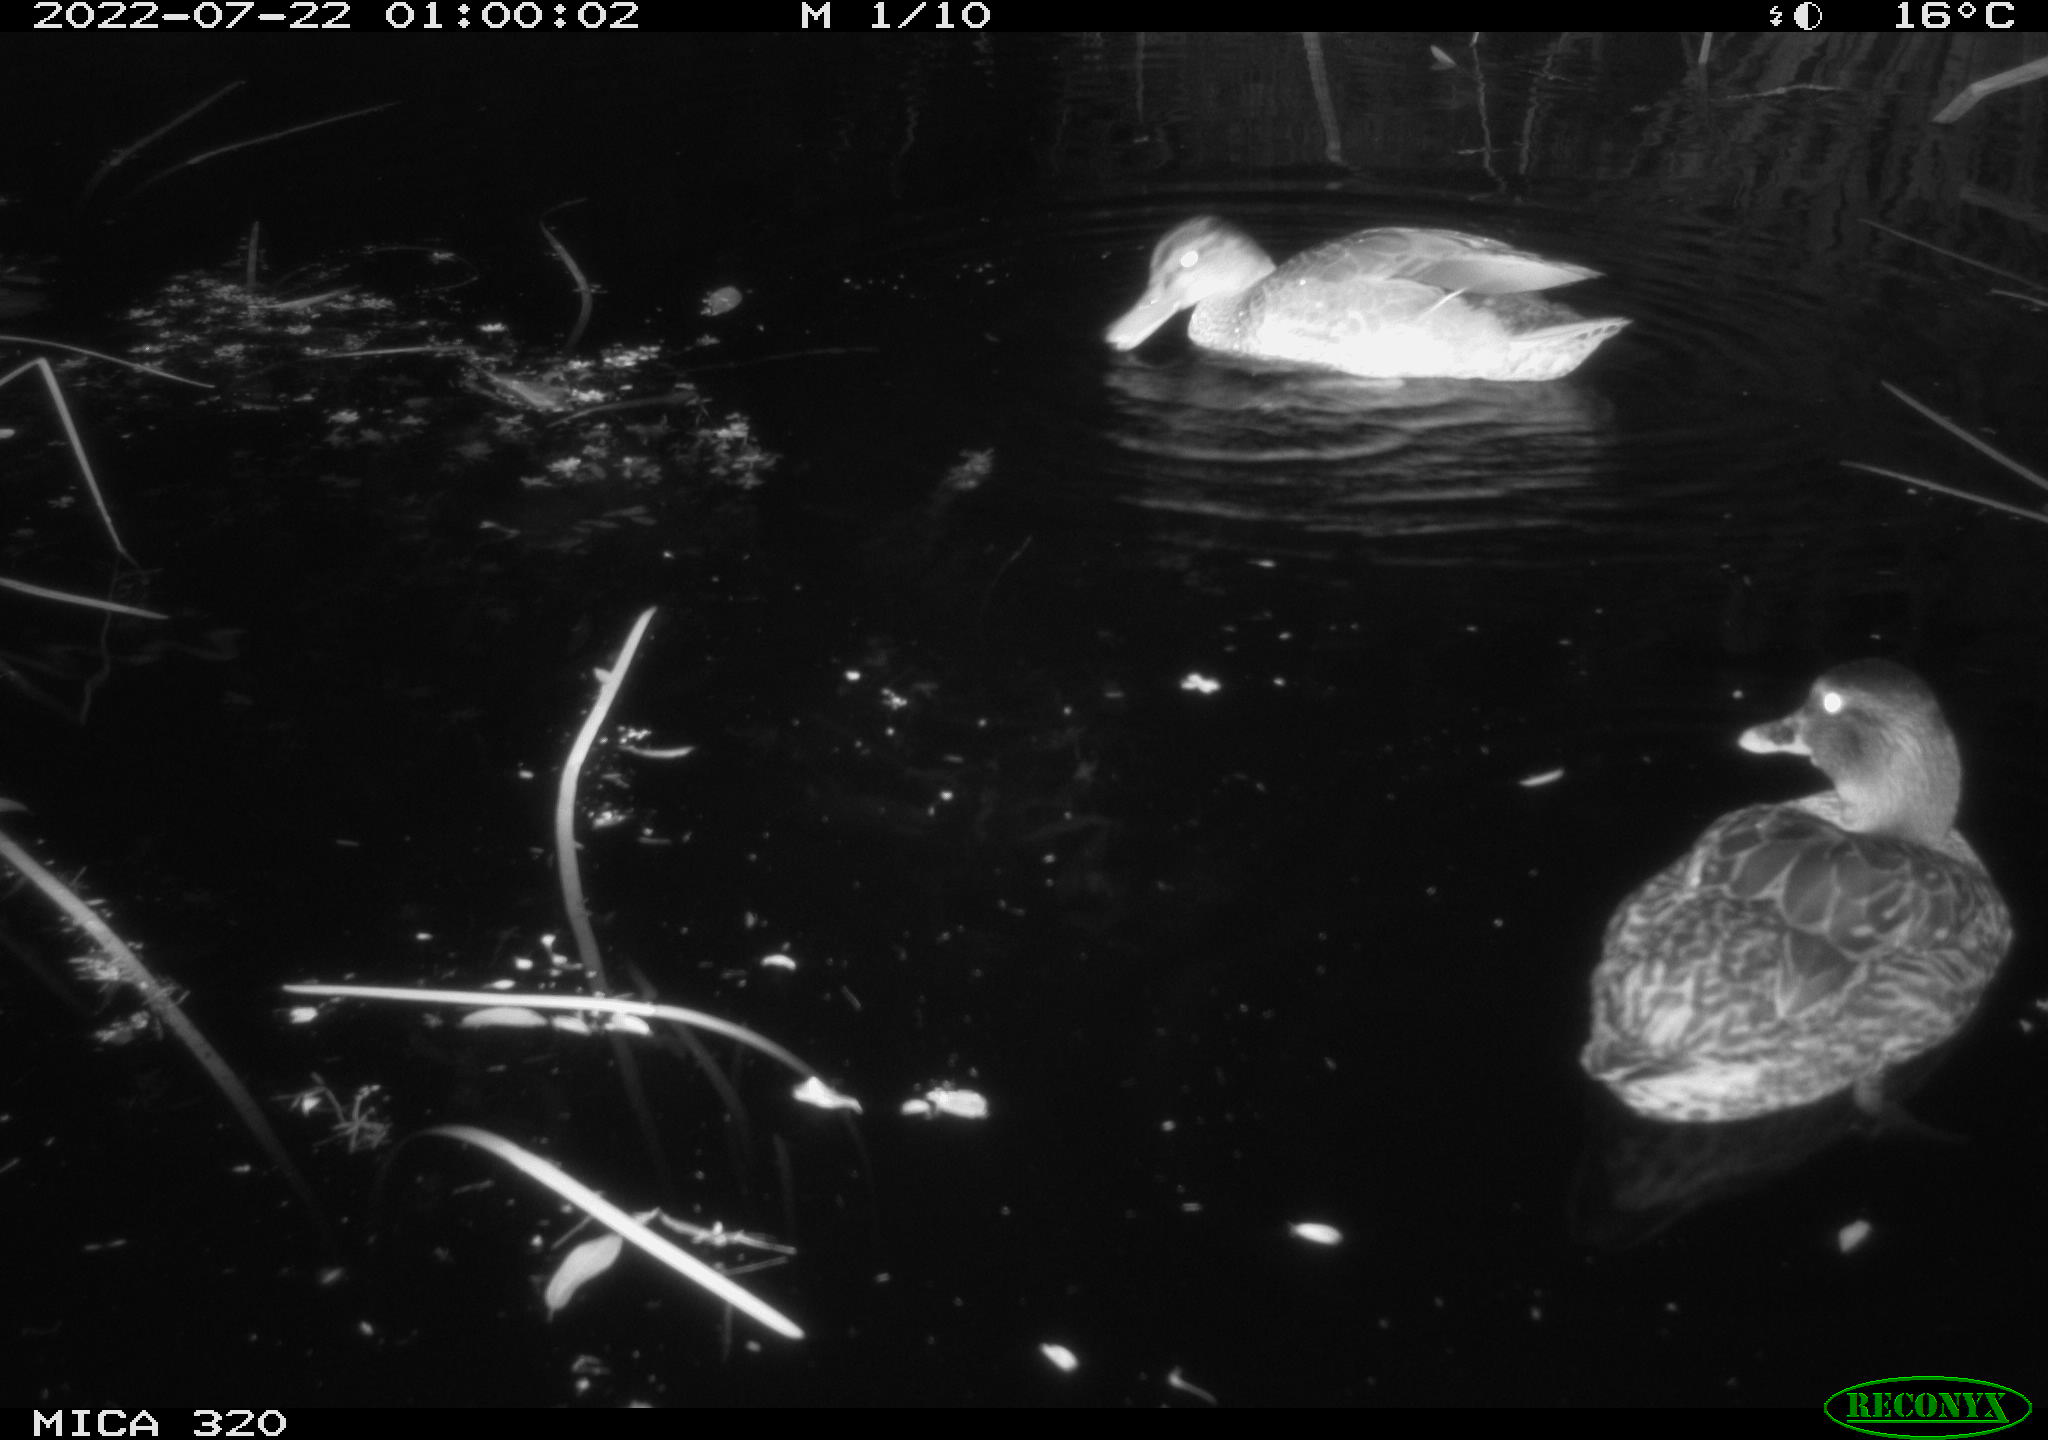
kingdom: Animalia
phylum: Chordata
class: Aves
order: Anseriformes
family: Anatidae
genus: Anas
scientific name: Anas platyrhynchos
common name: Mallard
